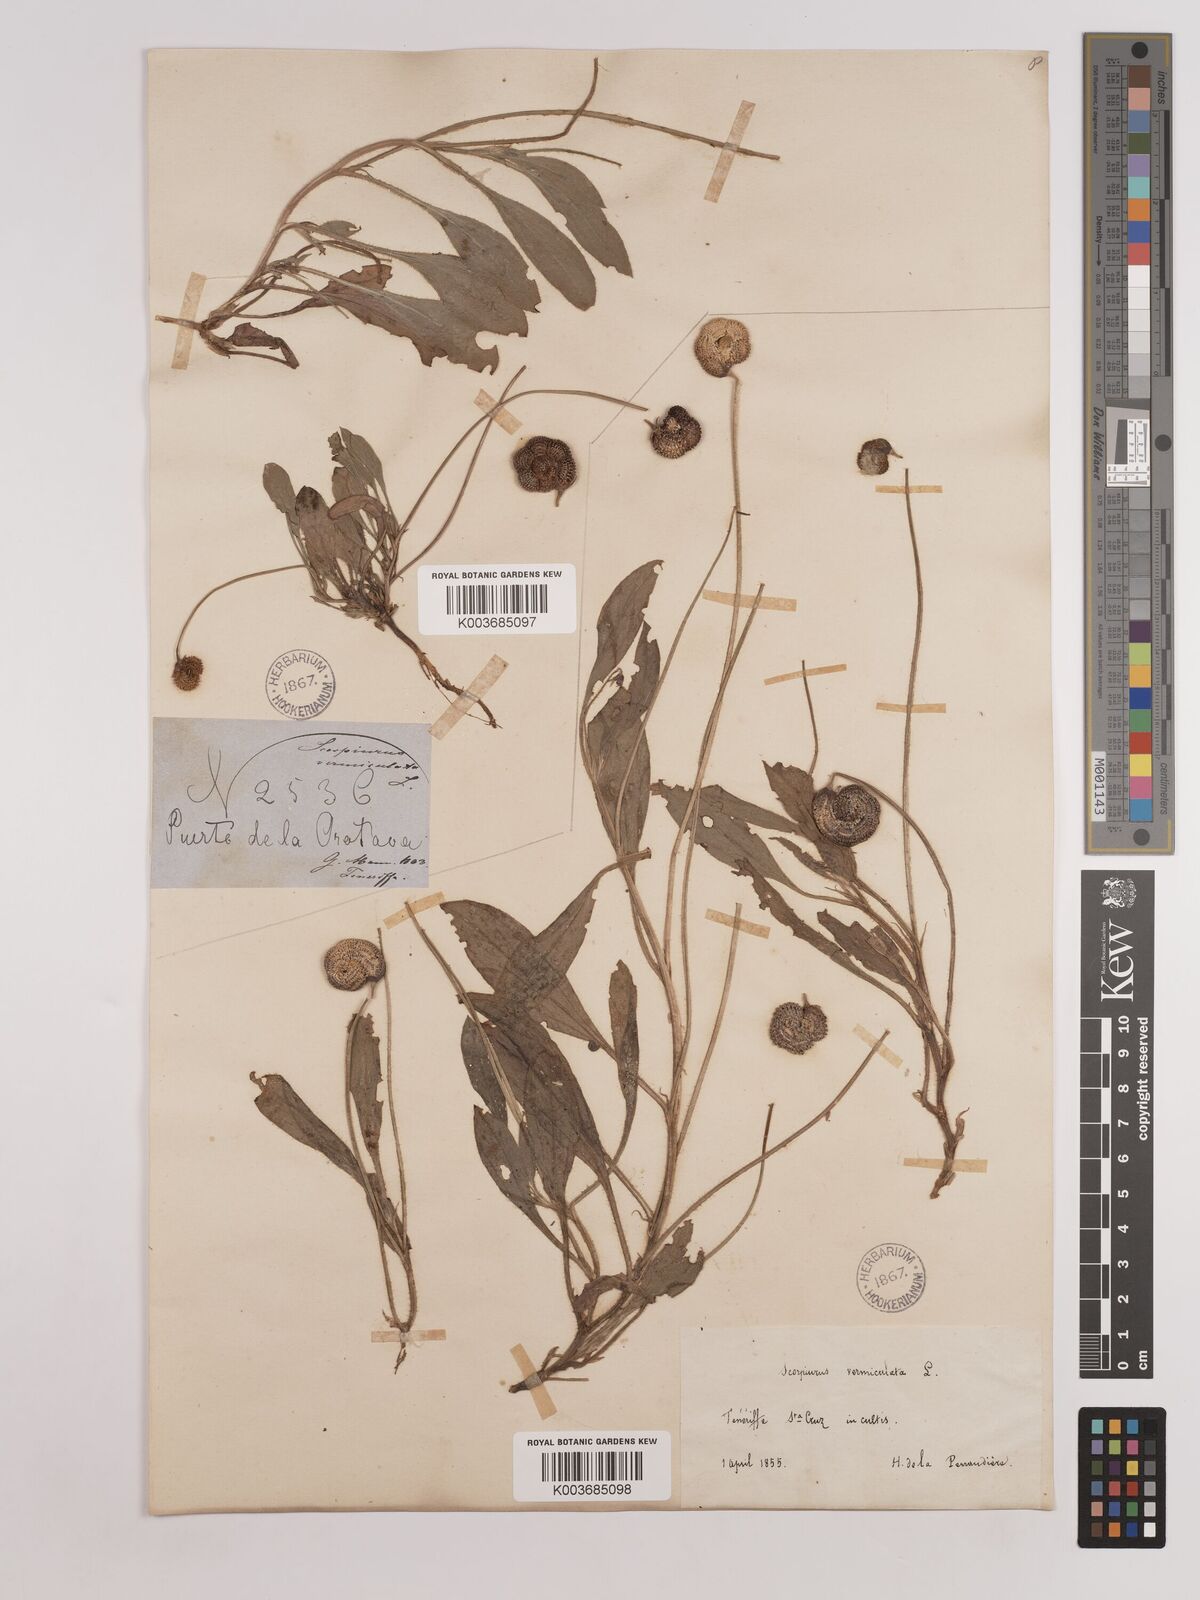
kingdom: Plantae
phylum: Tracheophyta
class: Magnoliopsida
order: Fabales
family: Fabaceae
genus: Scorpiurus
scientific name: Scorpiurus vermiculatus
